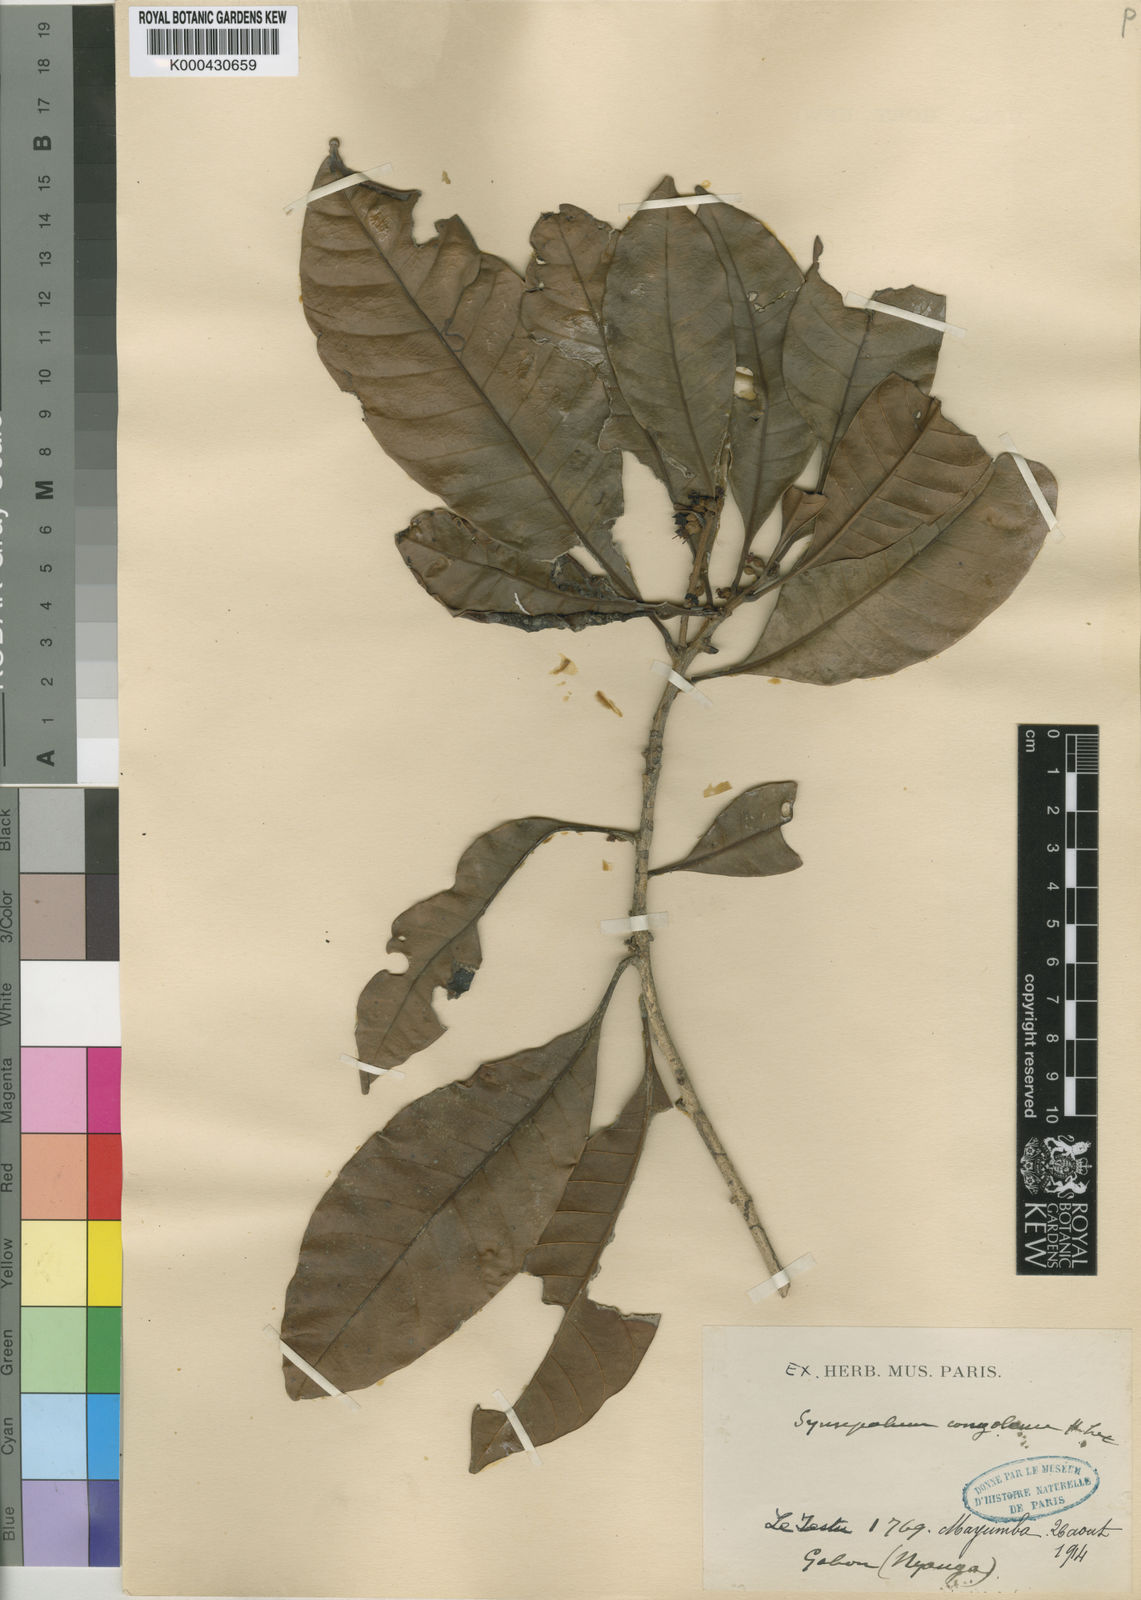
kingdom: Plantae
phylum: Tracheophyta
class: Magnoliopsida
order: Ericales
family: Sapotaceae
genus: Synsepalum
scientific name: Synsepalum congolense
